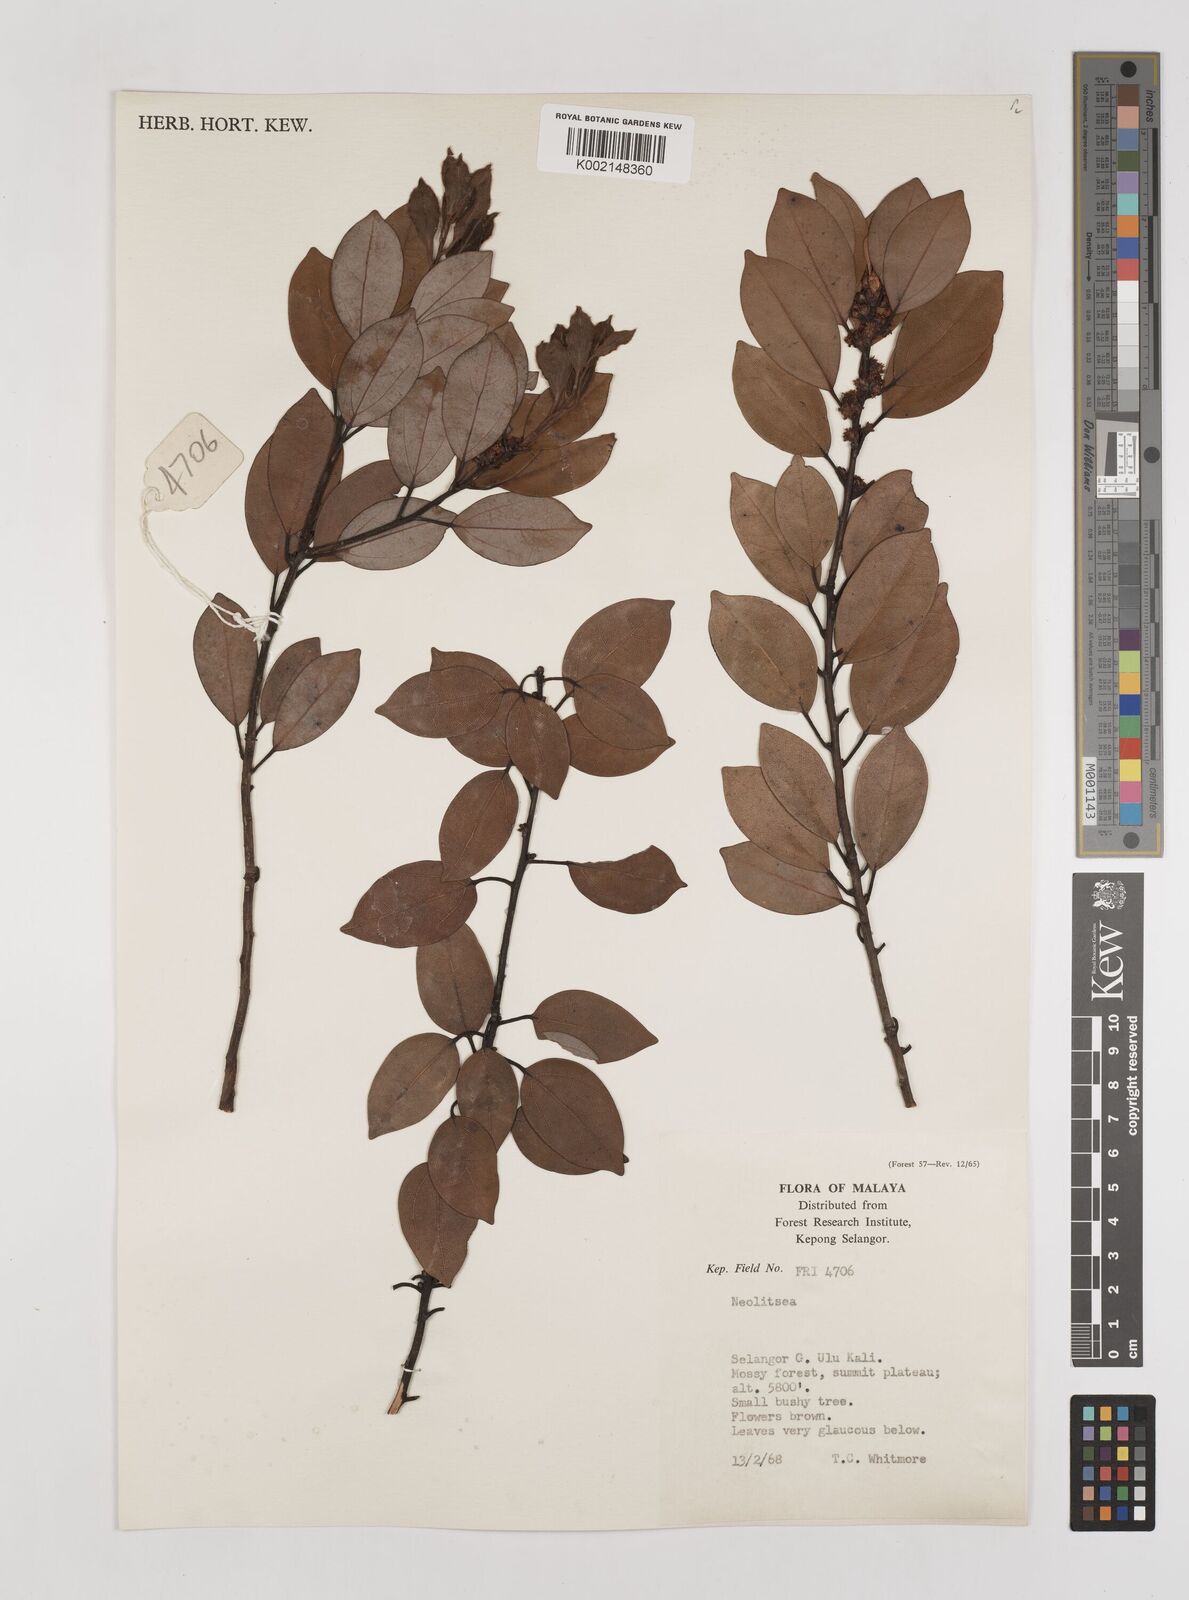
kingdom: Plantae
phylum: Tracheophyta
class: Magnoliopsida
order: Laurales
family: Lauraceae
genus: Neolitsea
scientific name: Neolitsea
